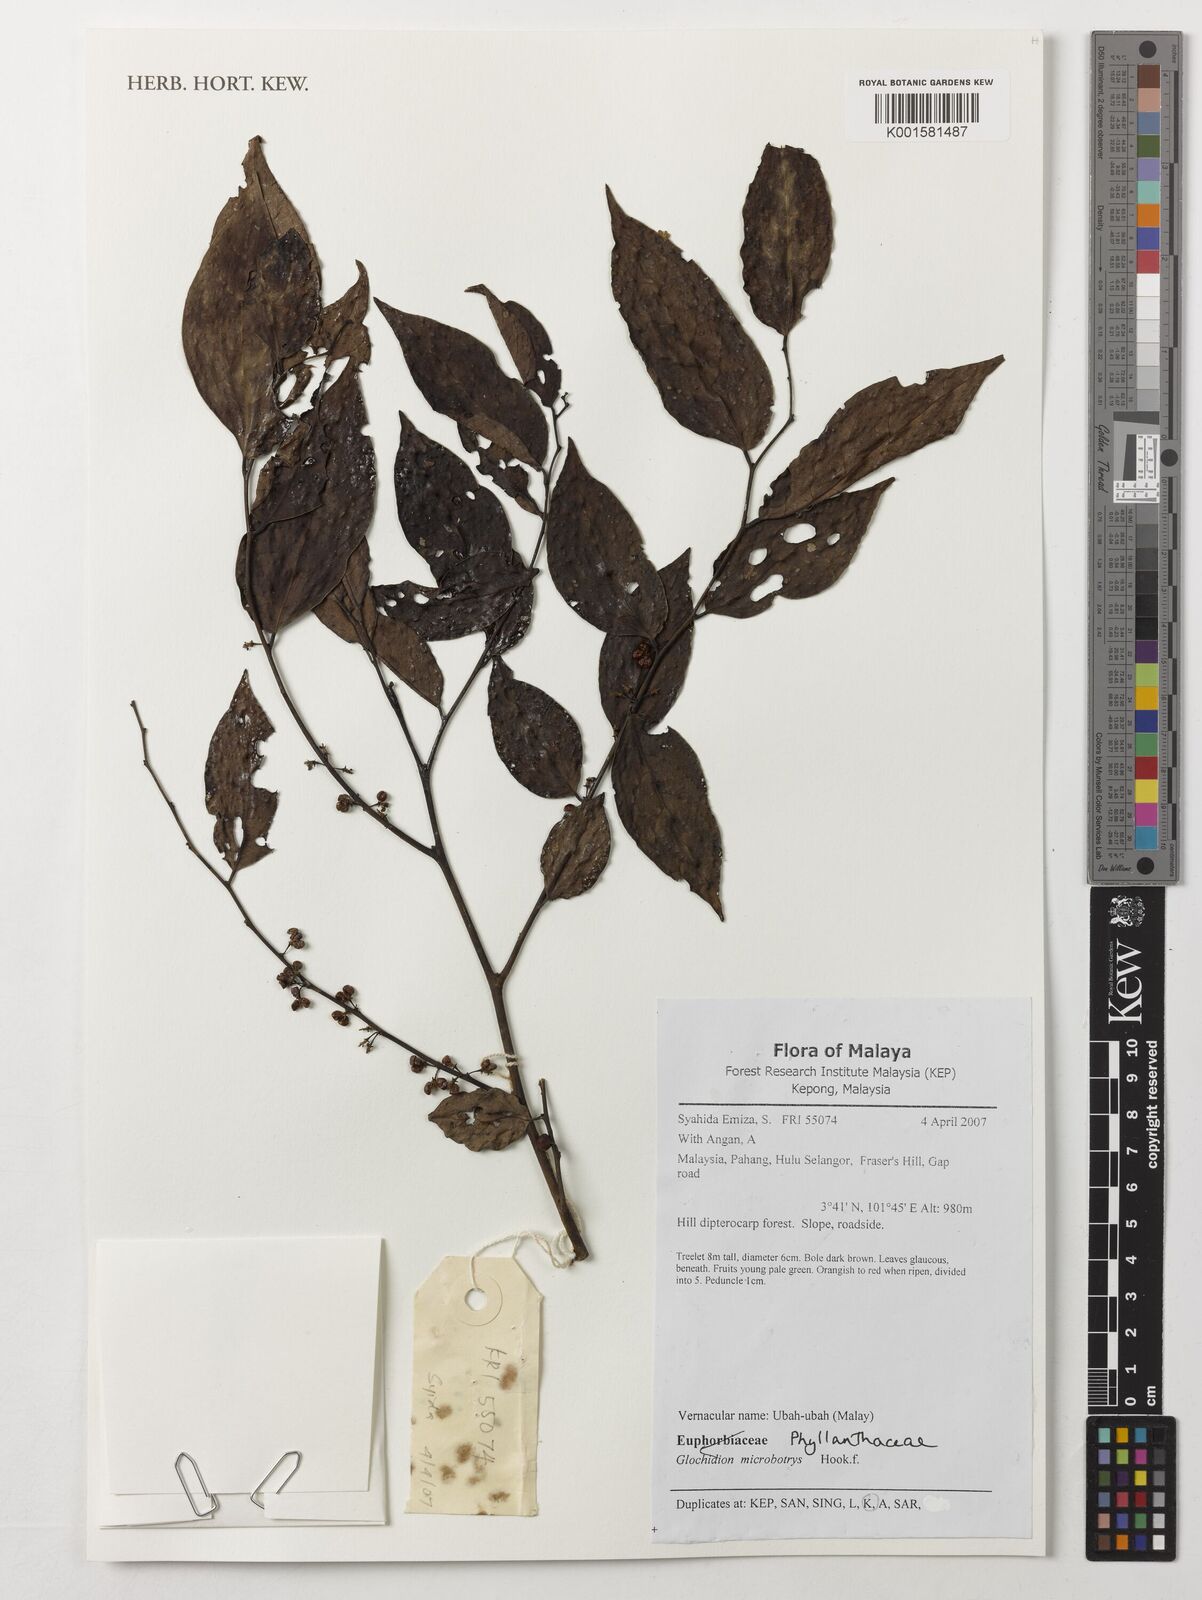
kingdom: Plantae
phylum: Tracheophyta
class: Magnoliopsida
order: Malpighiales
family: Phyllanthaceae
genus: Glochidion
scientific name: Glochidion borneense
